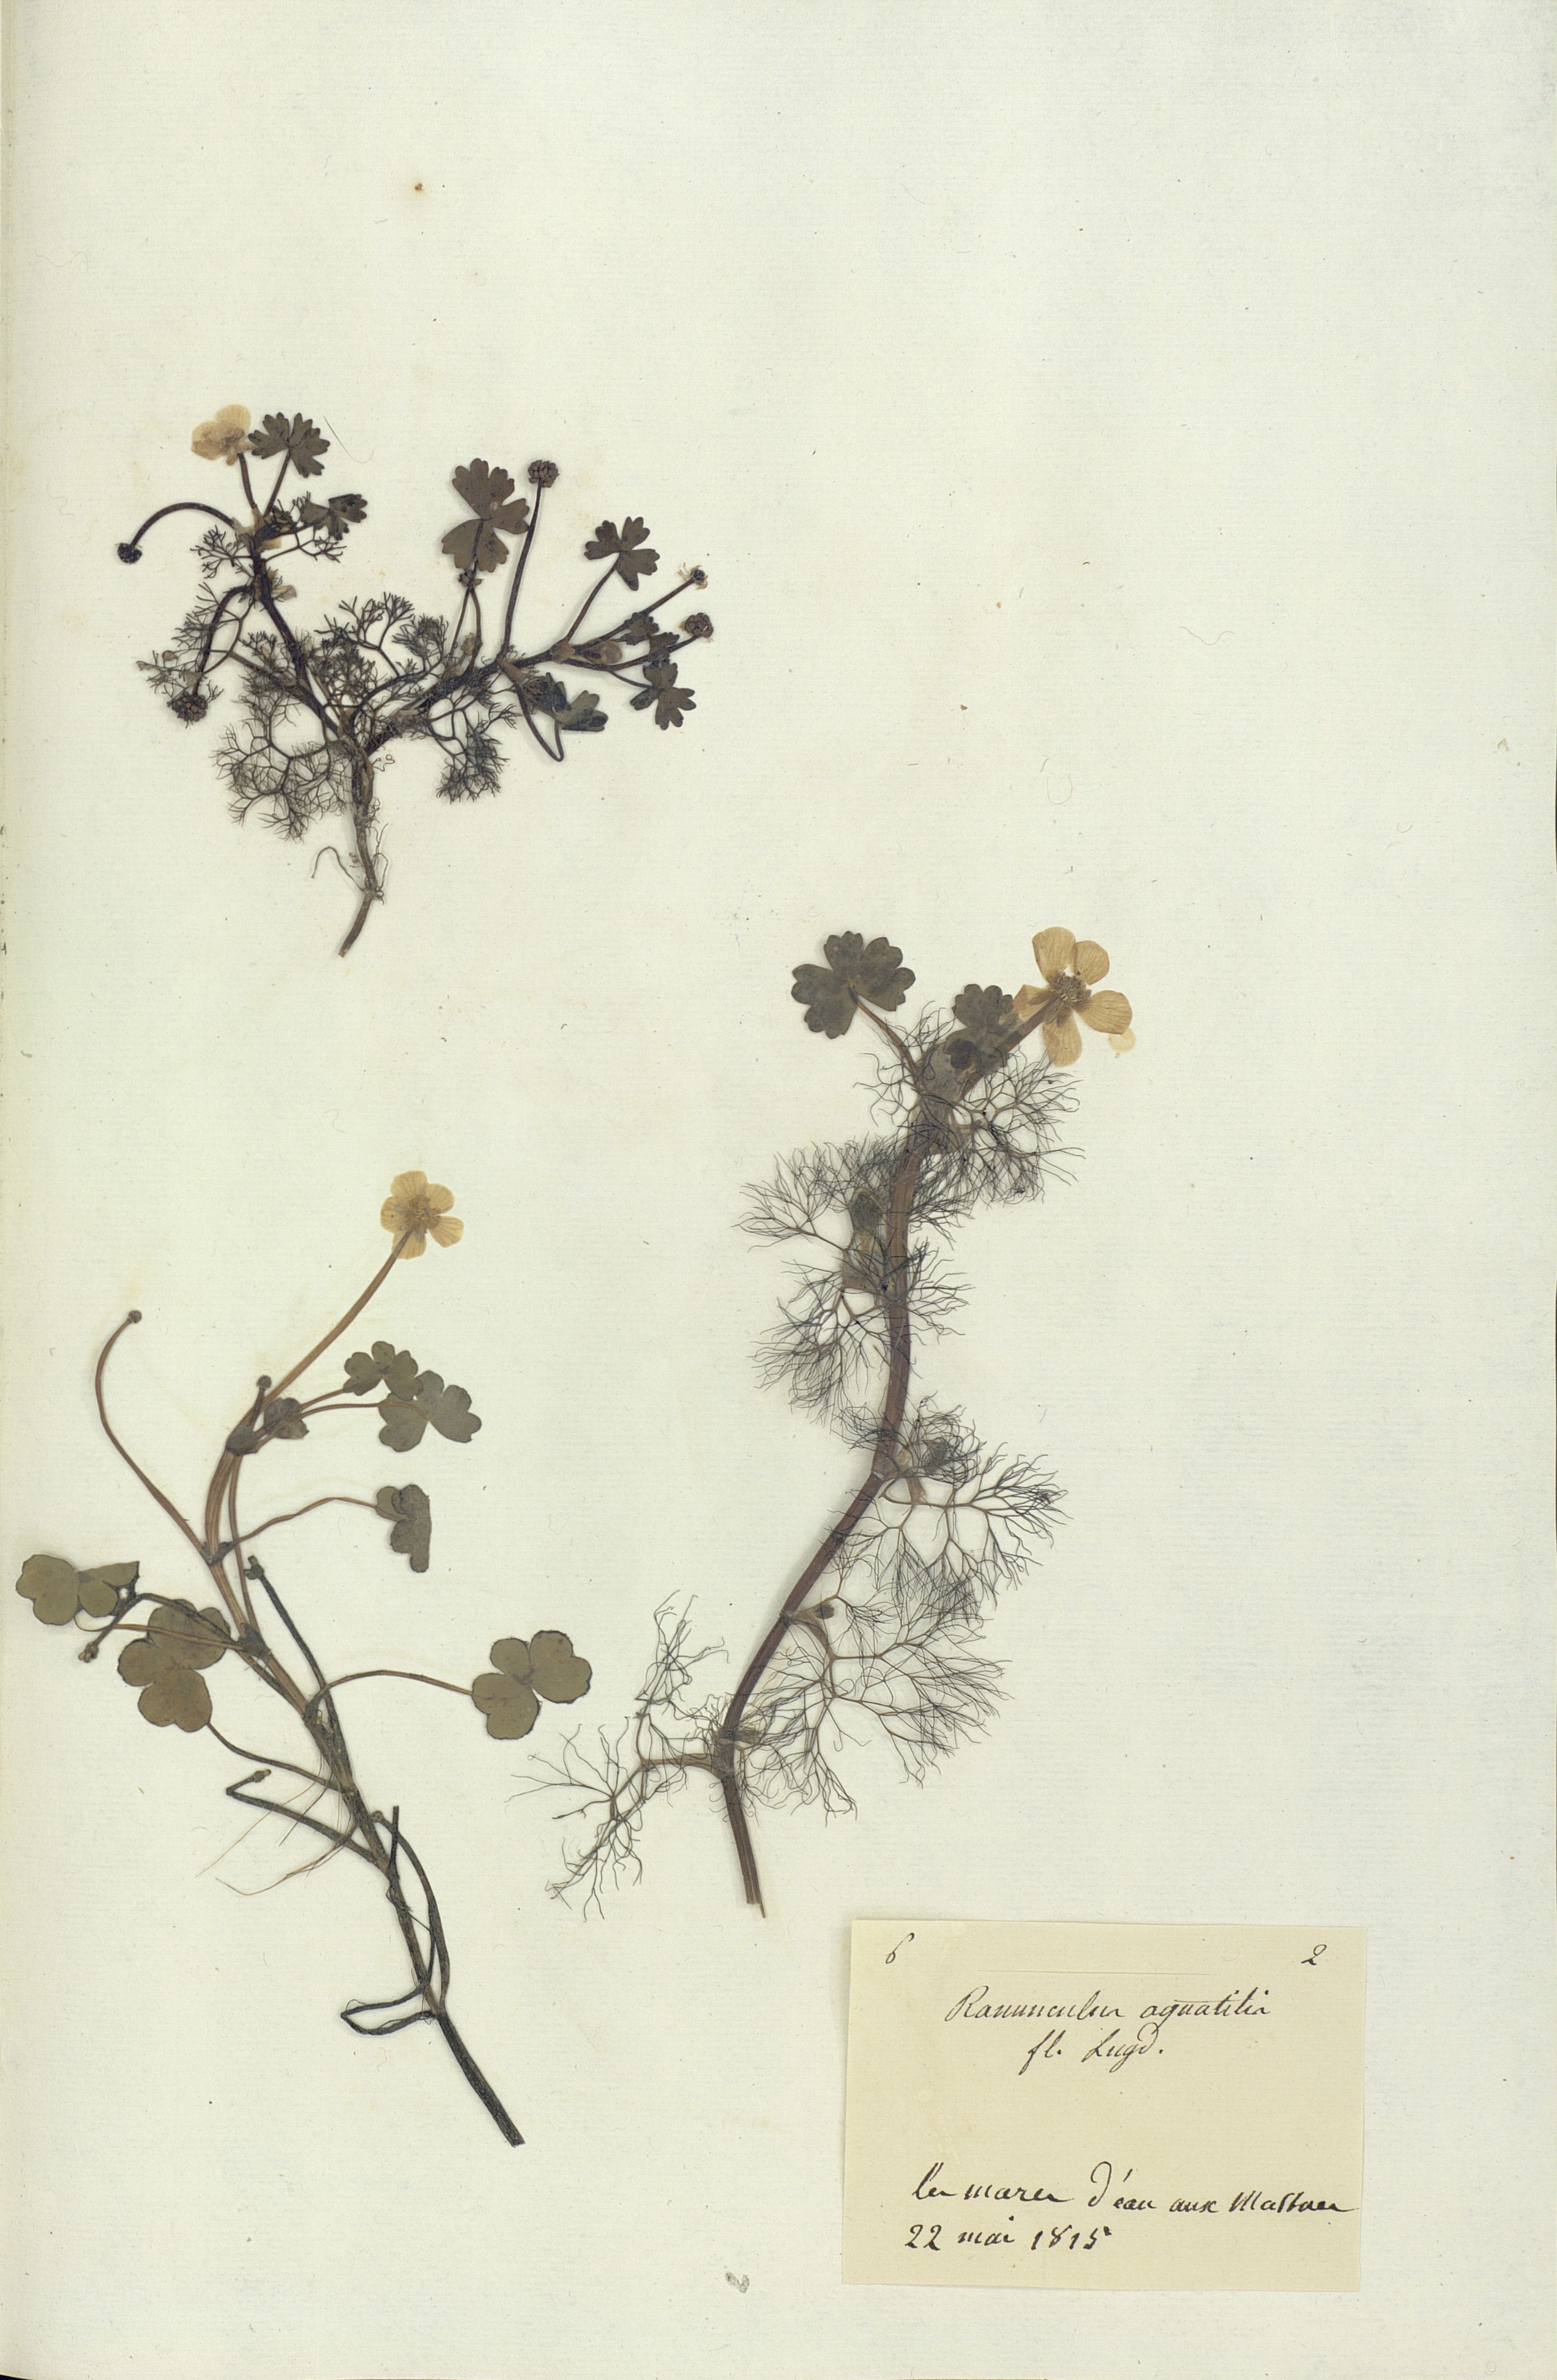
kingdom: Plantae
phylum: Tracheophyta
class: Magnoliopsida
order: Ranunculales
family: Ranunculaceae
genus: Ranunculus
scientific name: Ranunculus aquatilis
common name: Common water-crowfoot
